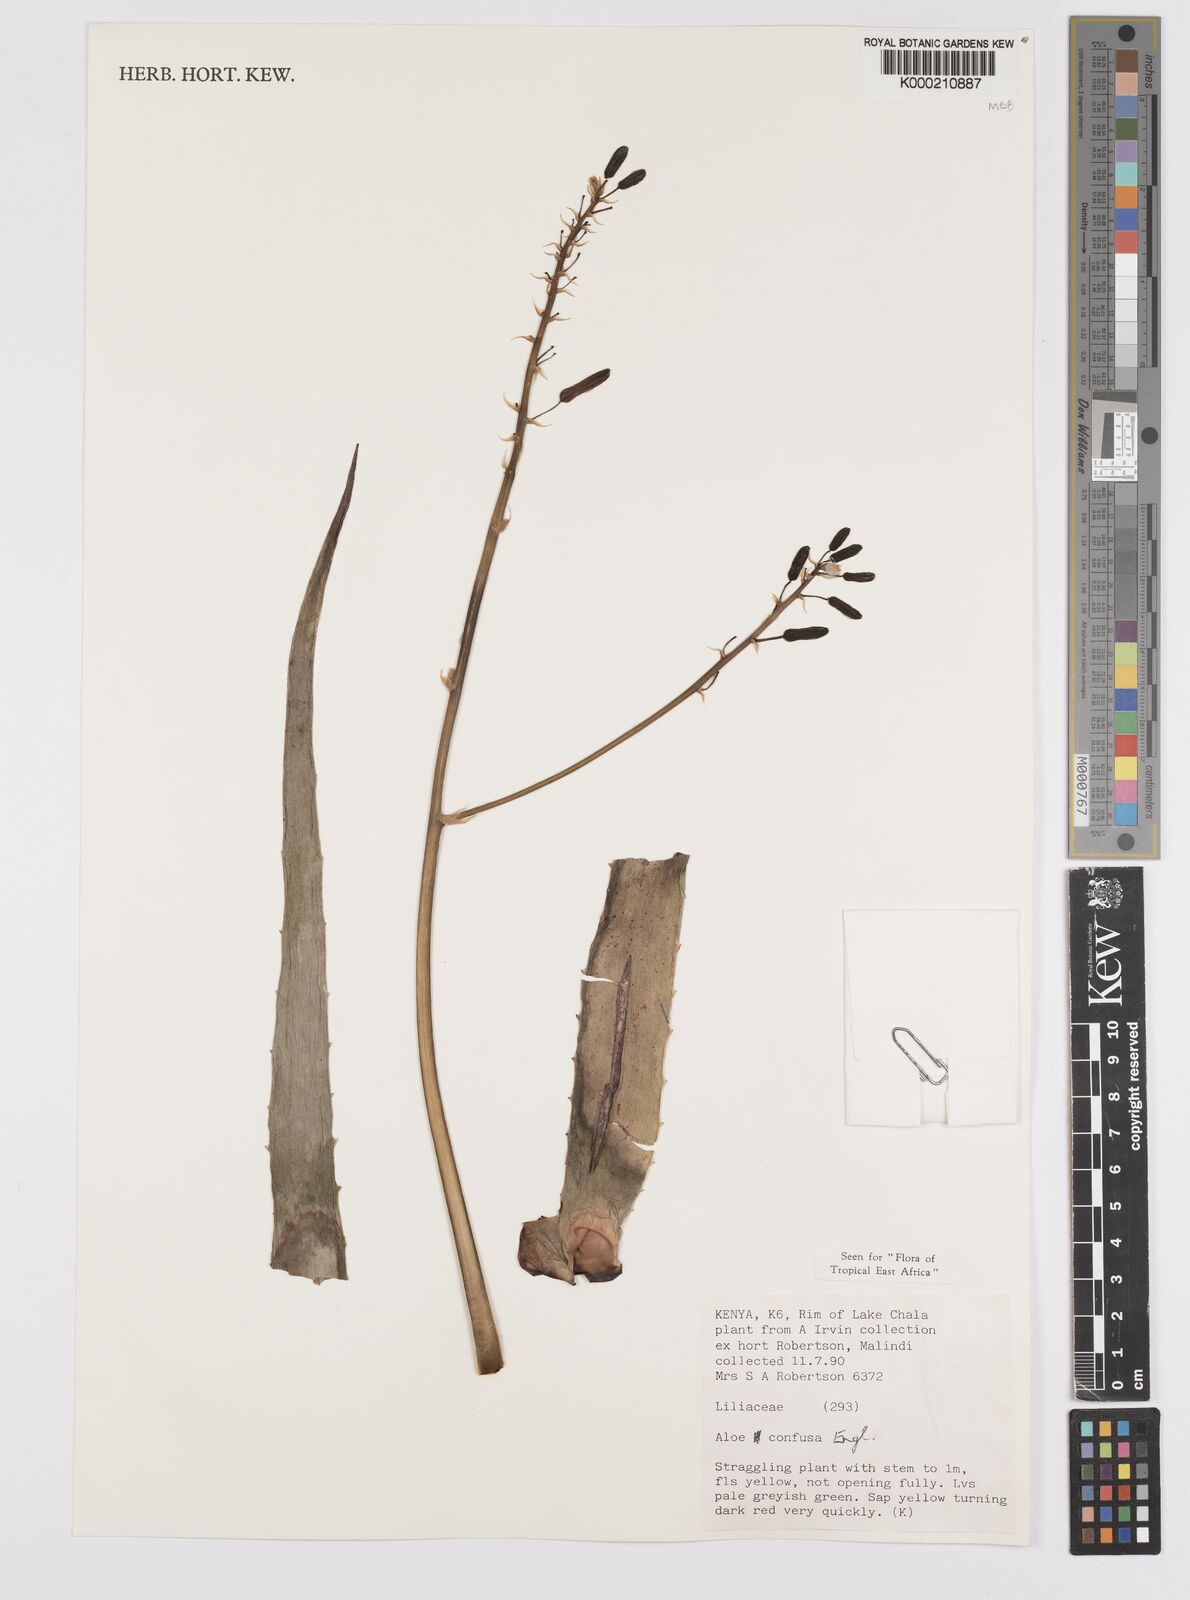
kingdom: Plantae
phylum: Tracheophyta
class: Liliopsida
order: Asparagales
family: Asphodelaceae
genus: Aloe
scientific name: Aloe confusa
